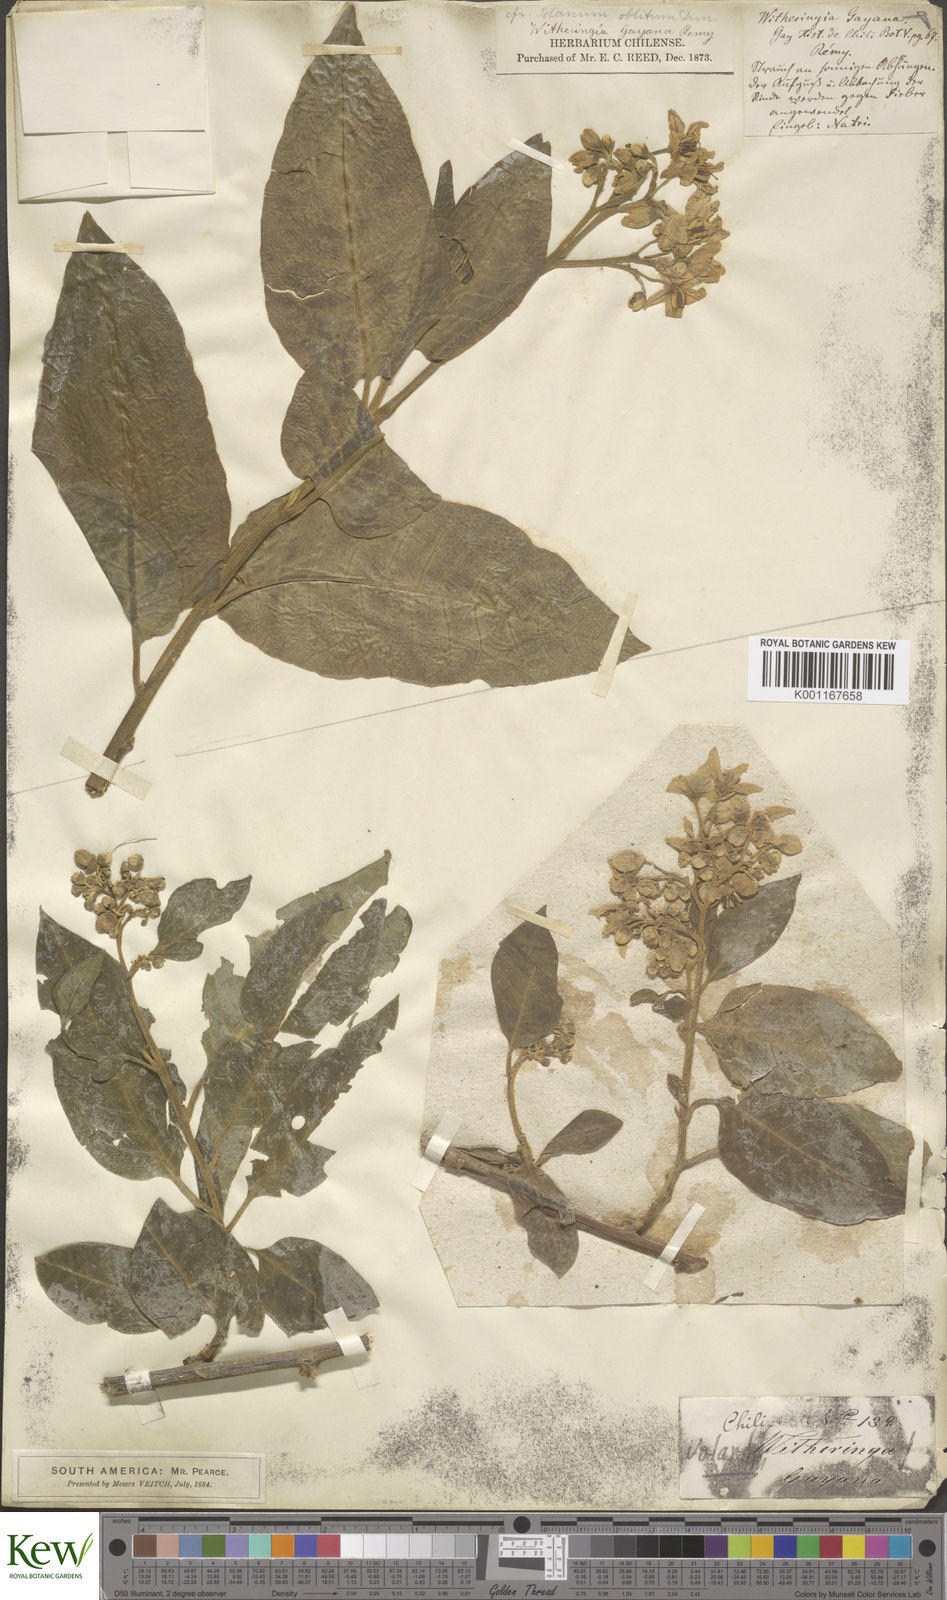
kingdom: Plantae
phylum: Tracheophyta
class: Magnoliopsida
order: Solanales
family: Solanaceae
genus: Solanum
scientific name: Solanum argenteum
